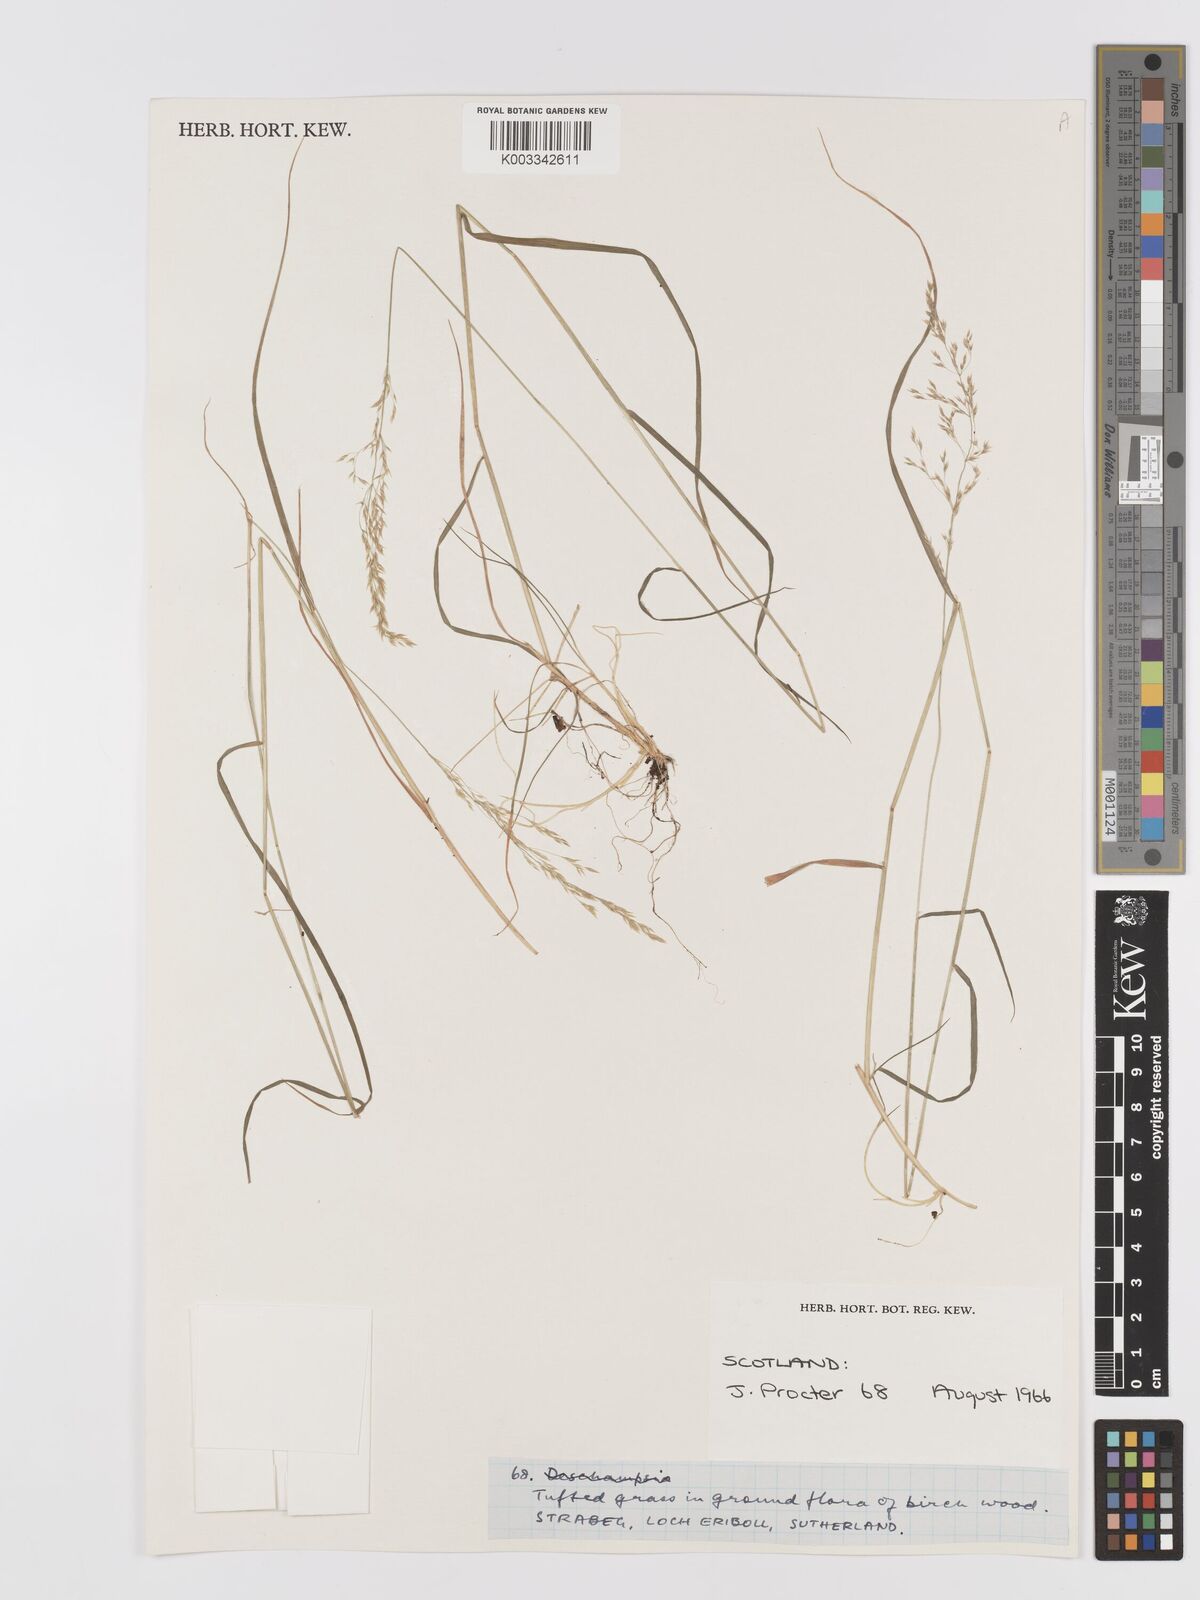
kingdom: Plantae
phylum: Tracheophyta
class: Liliopsida
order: Poales
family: Poaceae
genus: Agrostis
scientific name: Agrostis
